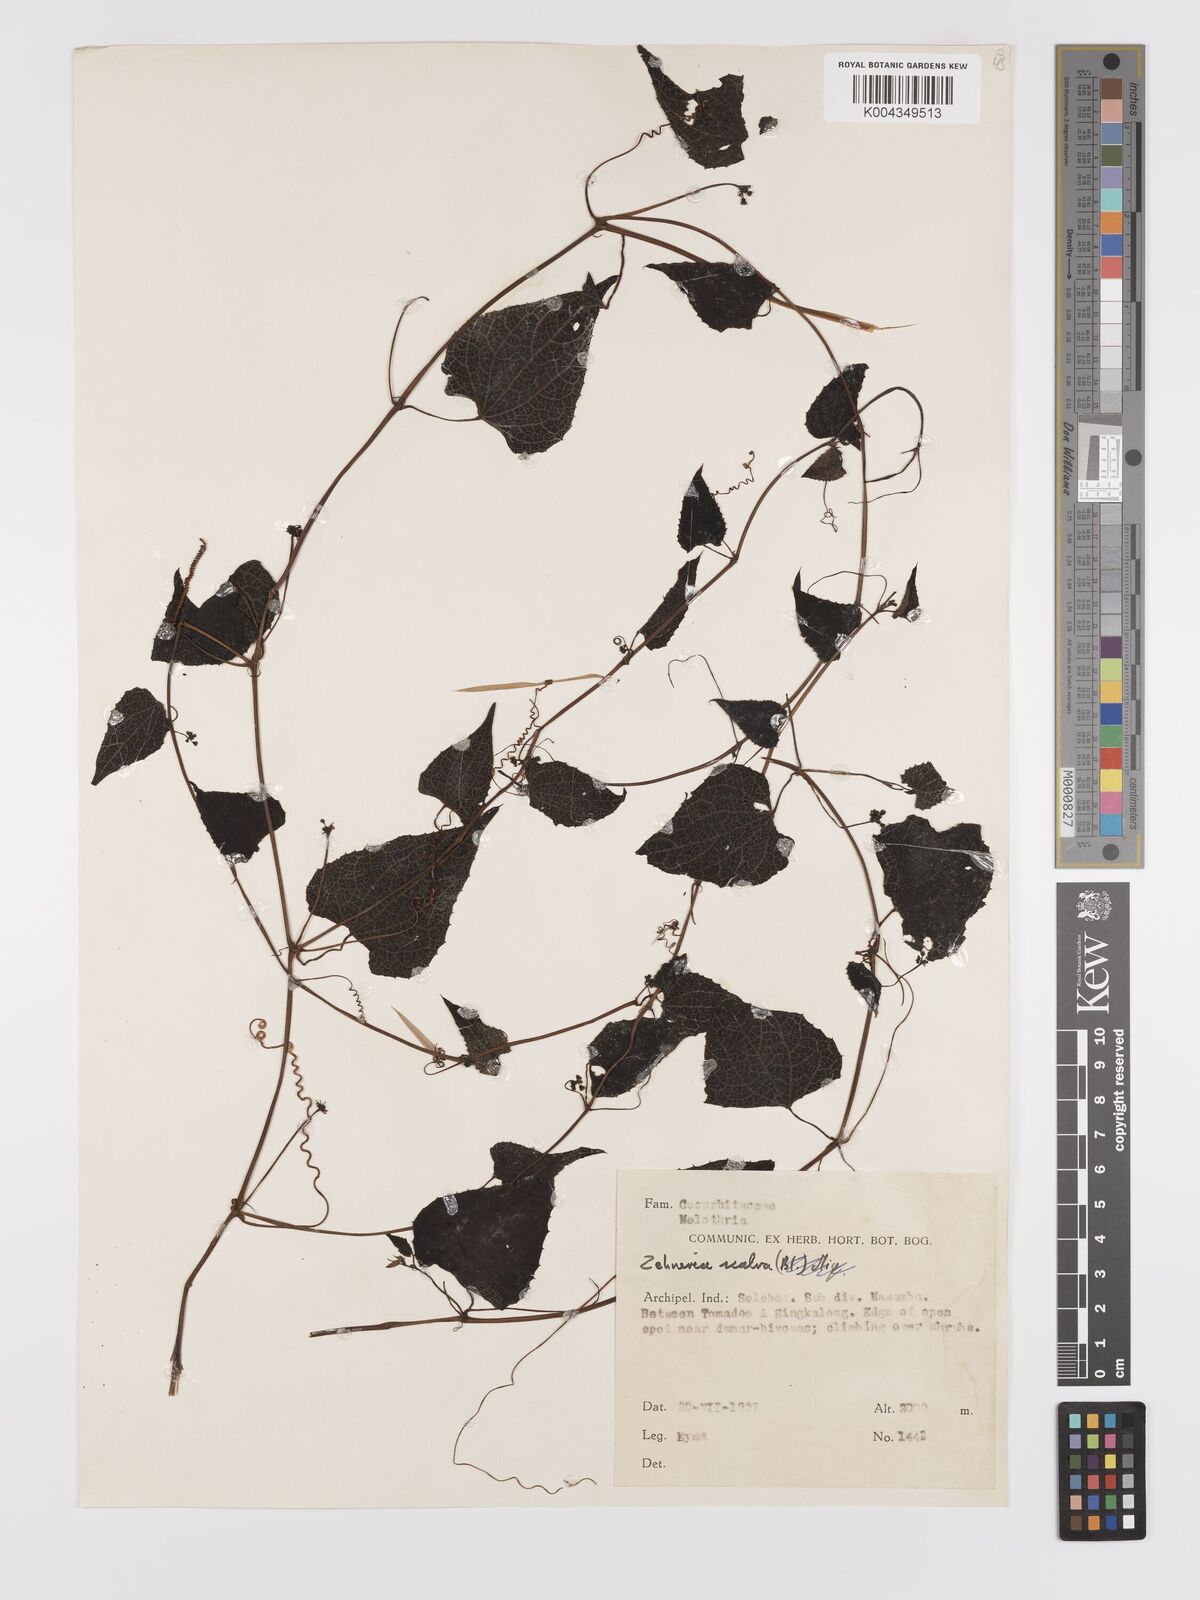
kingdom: Plantae
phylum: Tracheophyta
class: Magnoliopsida
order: Cucurbitales
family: Cucurbitaceae
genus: Zehneria
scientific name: Zehneria scabra
